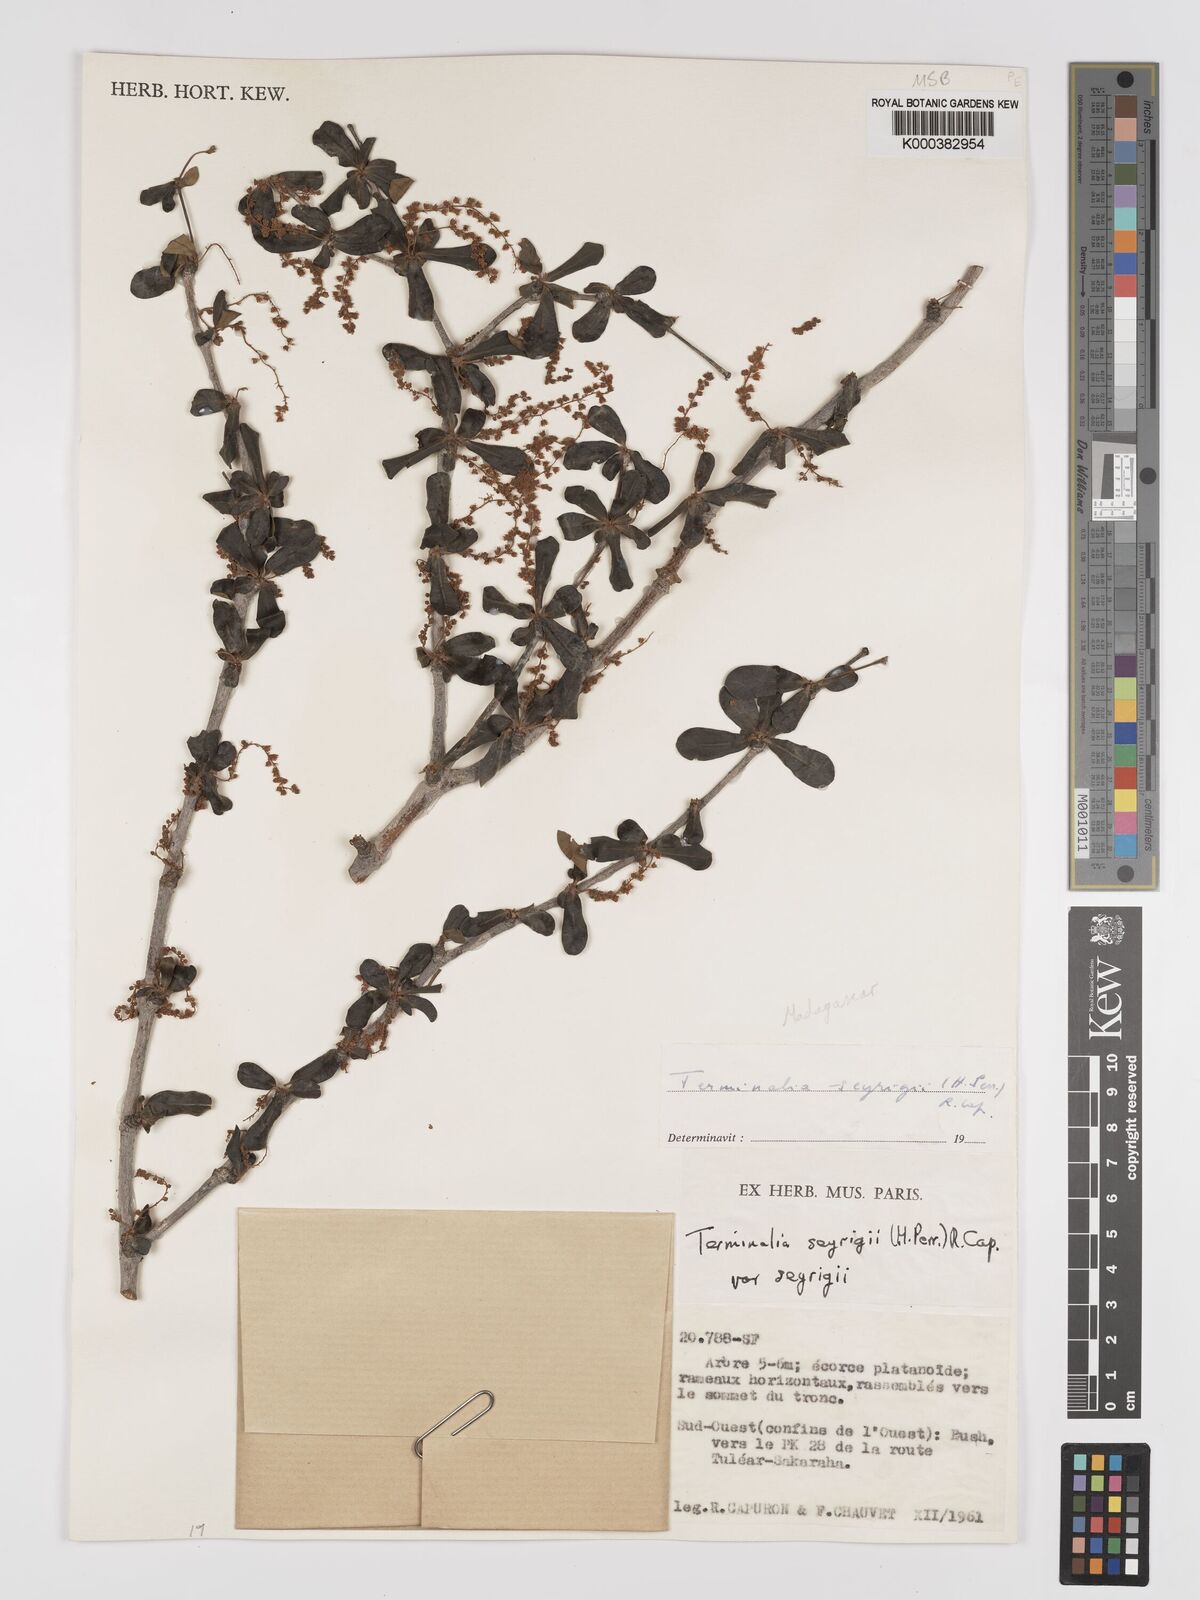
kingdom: Plantae
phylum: Tracheophyta
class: Magnoliopsida
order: Myrtales
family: Combretaceae
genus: Terminalia
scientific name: Terminalia
